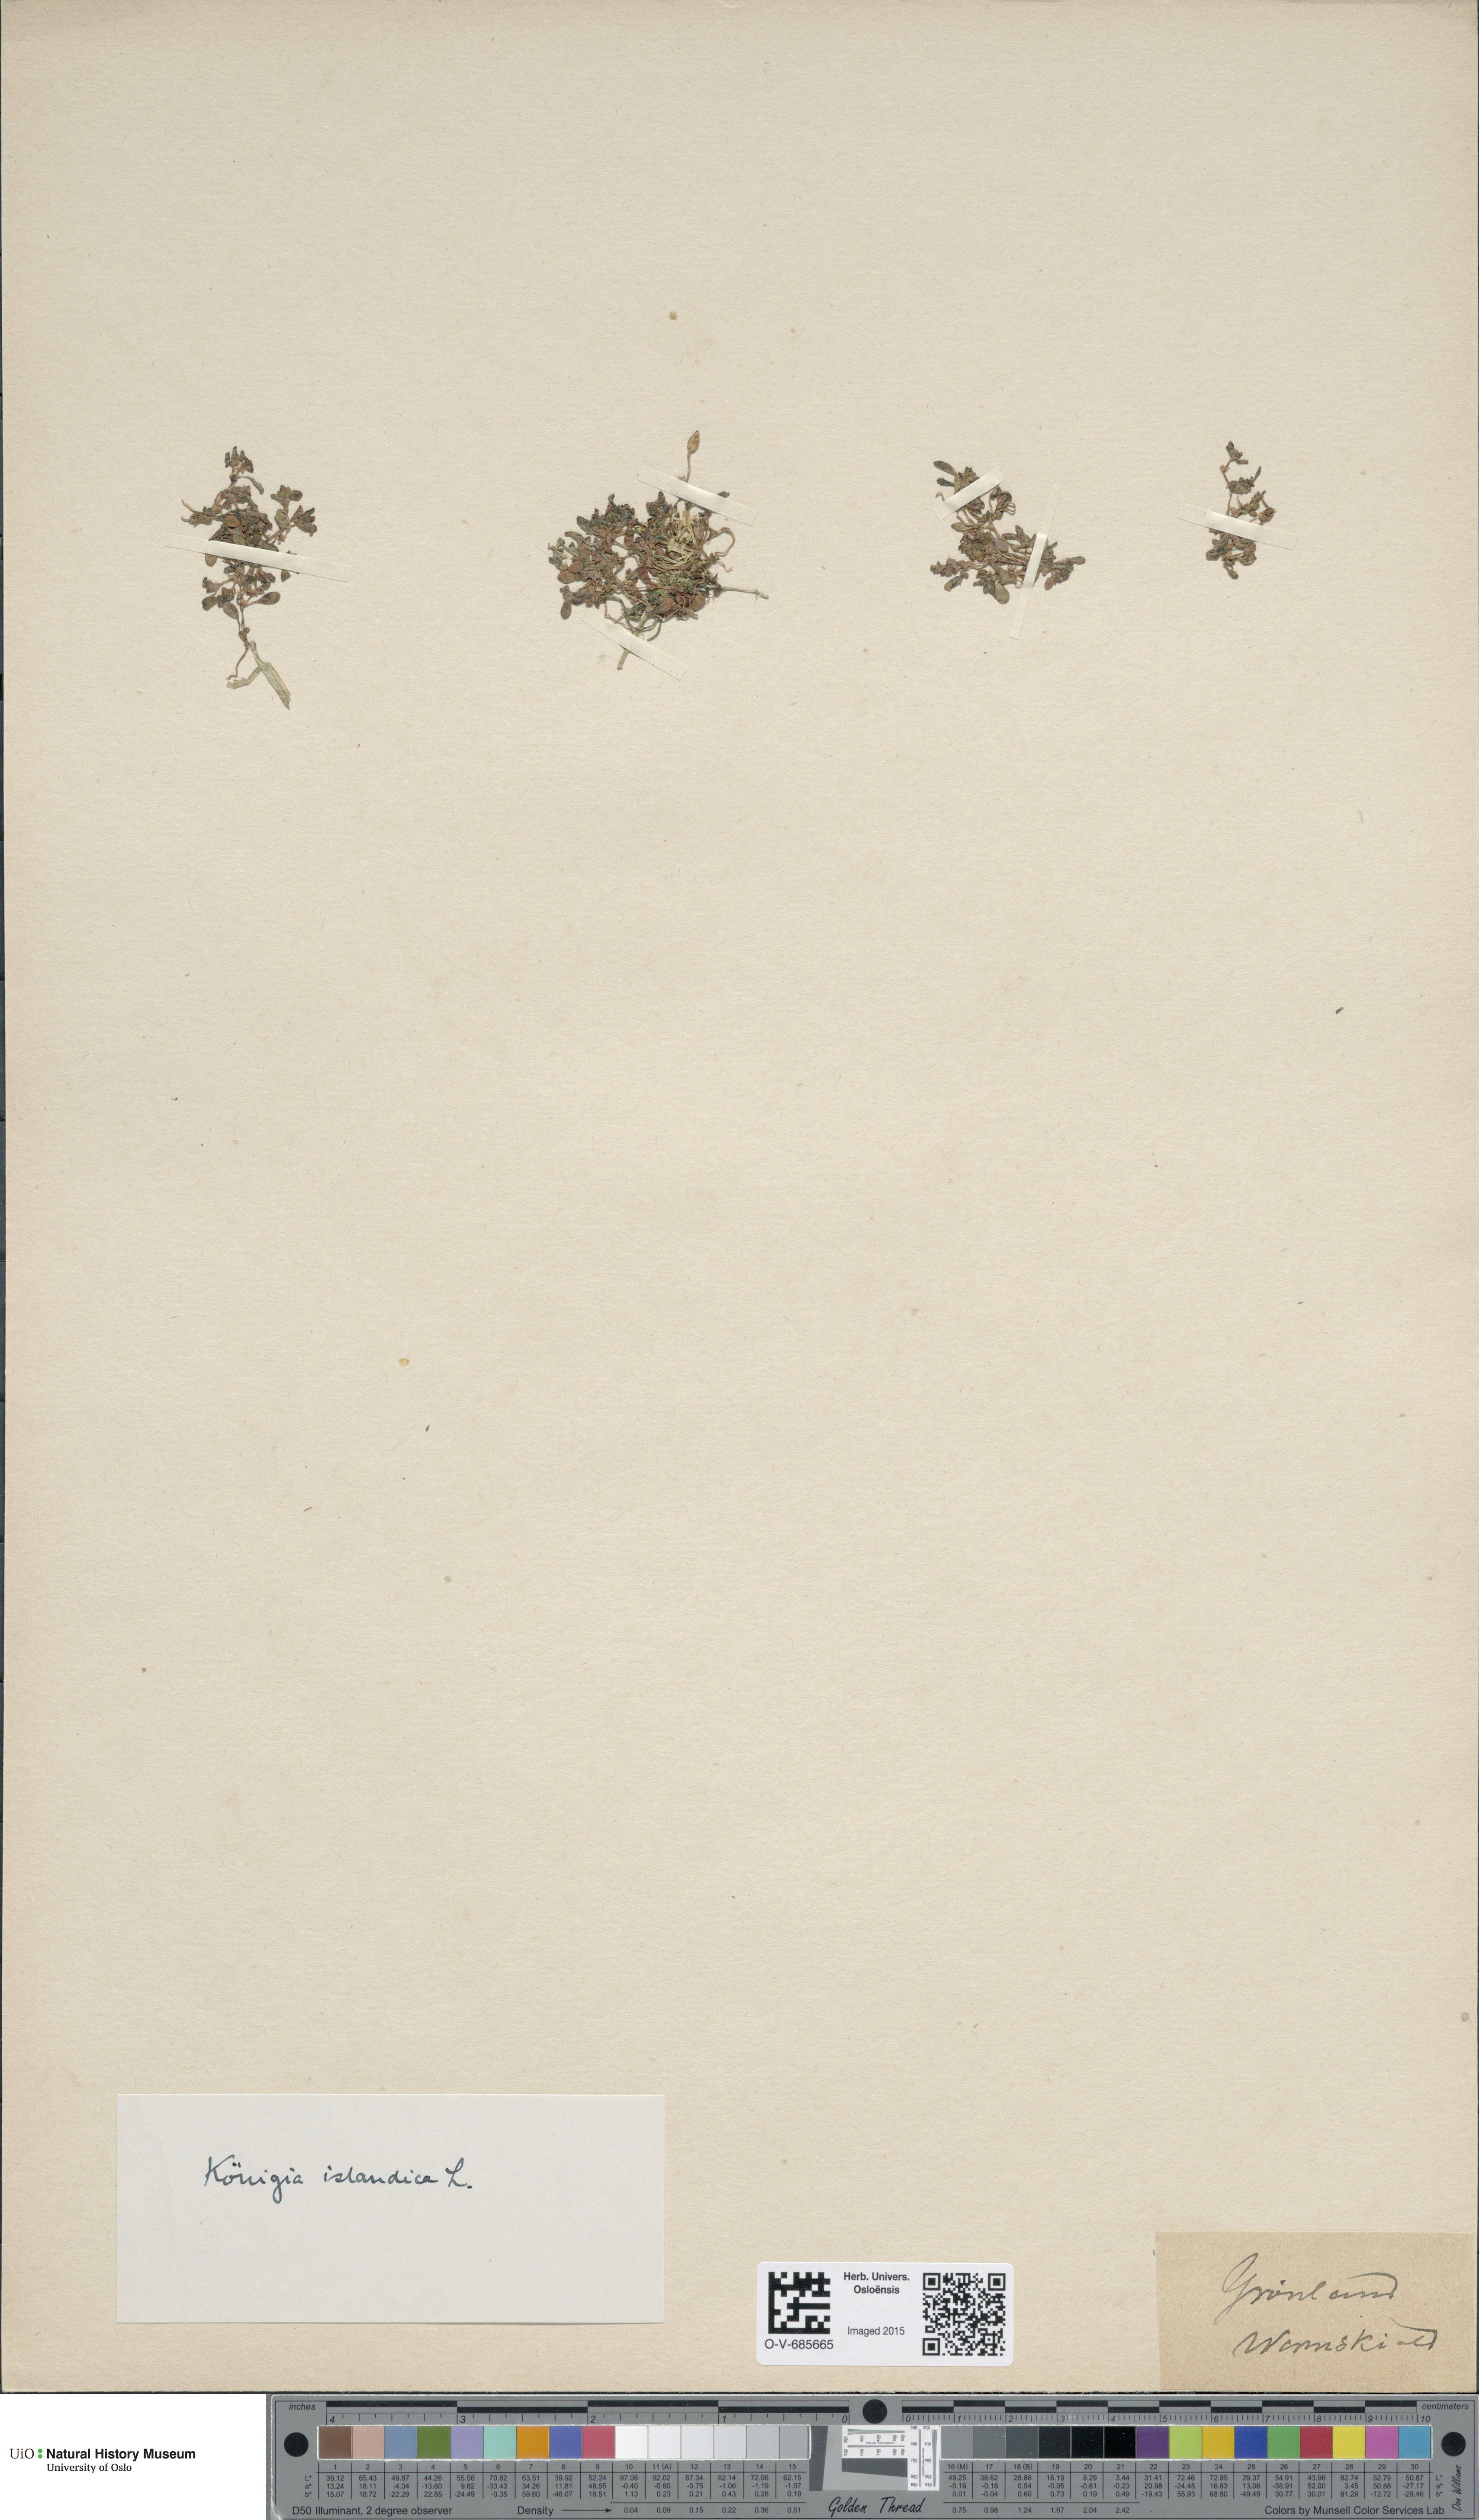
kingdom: Plantae
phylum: Tracheophyta
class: Magnoliopsida
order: Caryophyllales
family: Polygonaceae
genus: Koenigia
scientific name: Koenigia islandica
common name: Iceland-purslane
